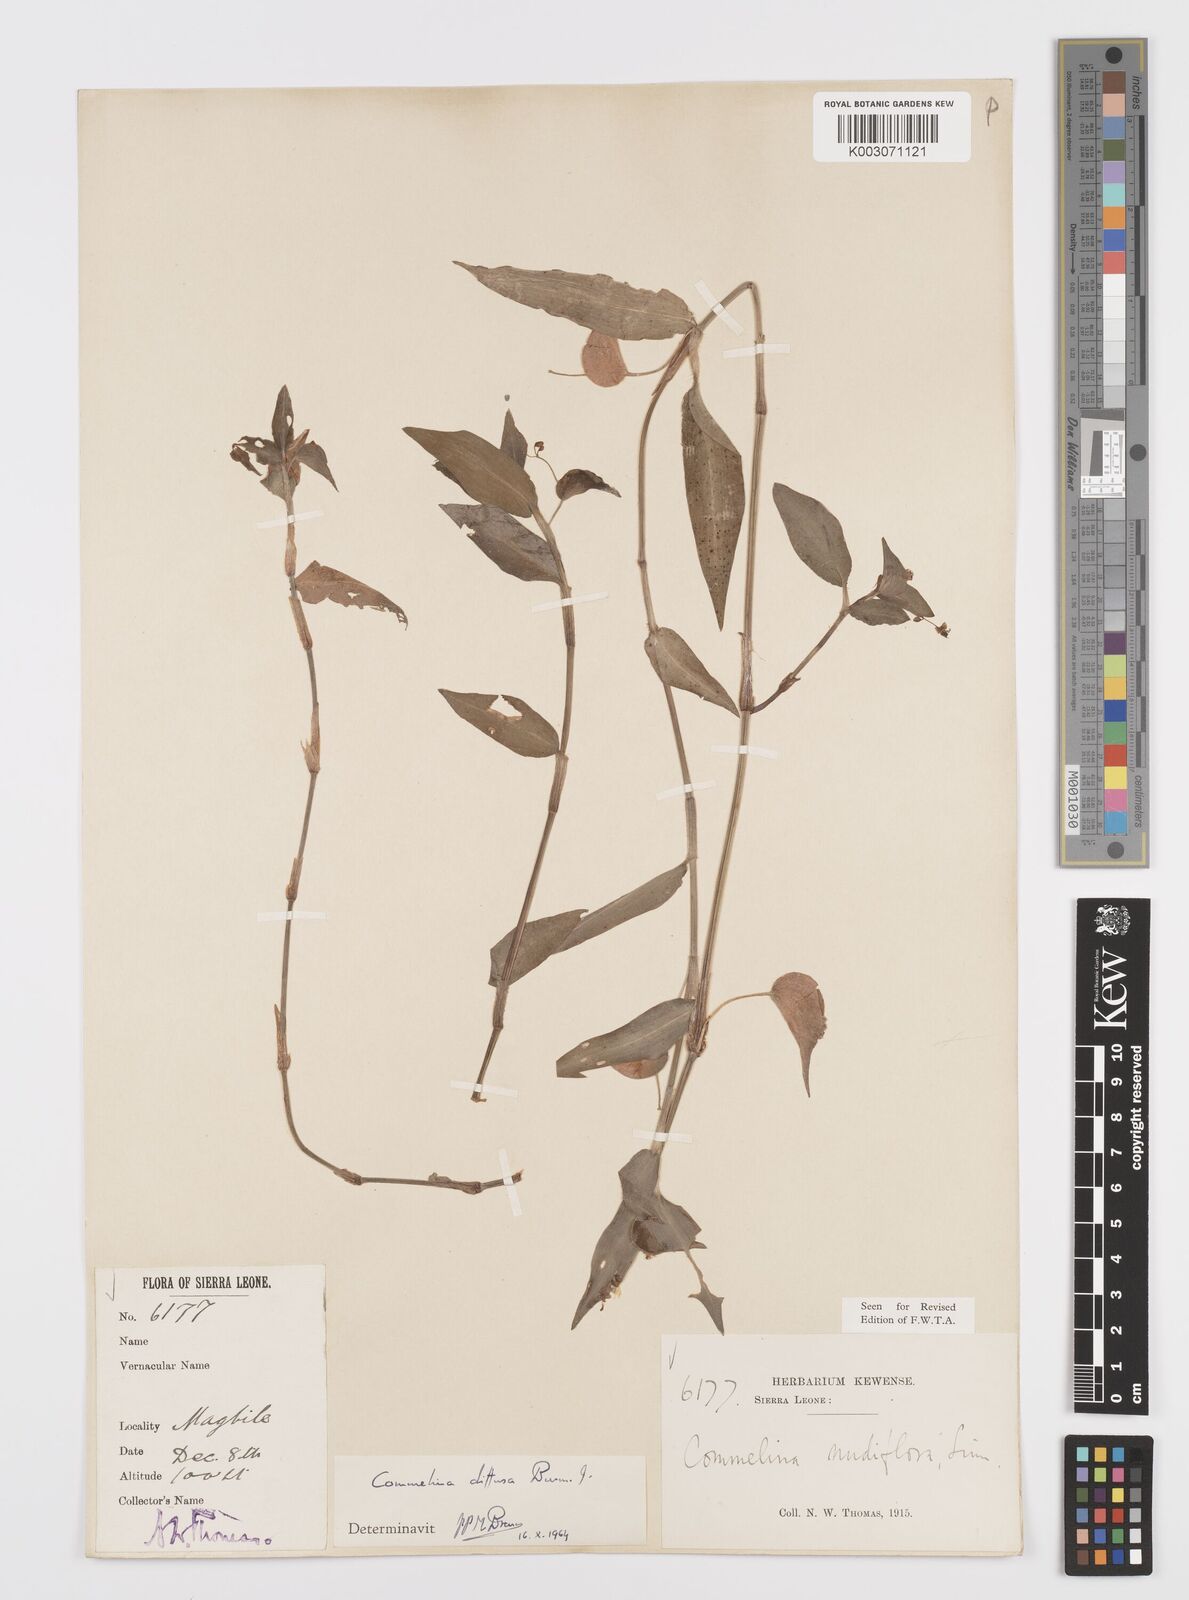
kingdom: Plantae
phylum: Tracheophyta
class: Liliopsida
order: Commelinales
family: Commelinaceae
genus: Commelina
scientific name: Commelina diffusa
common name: Climbing dayflower
